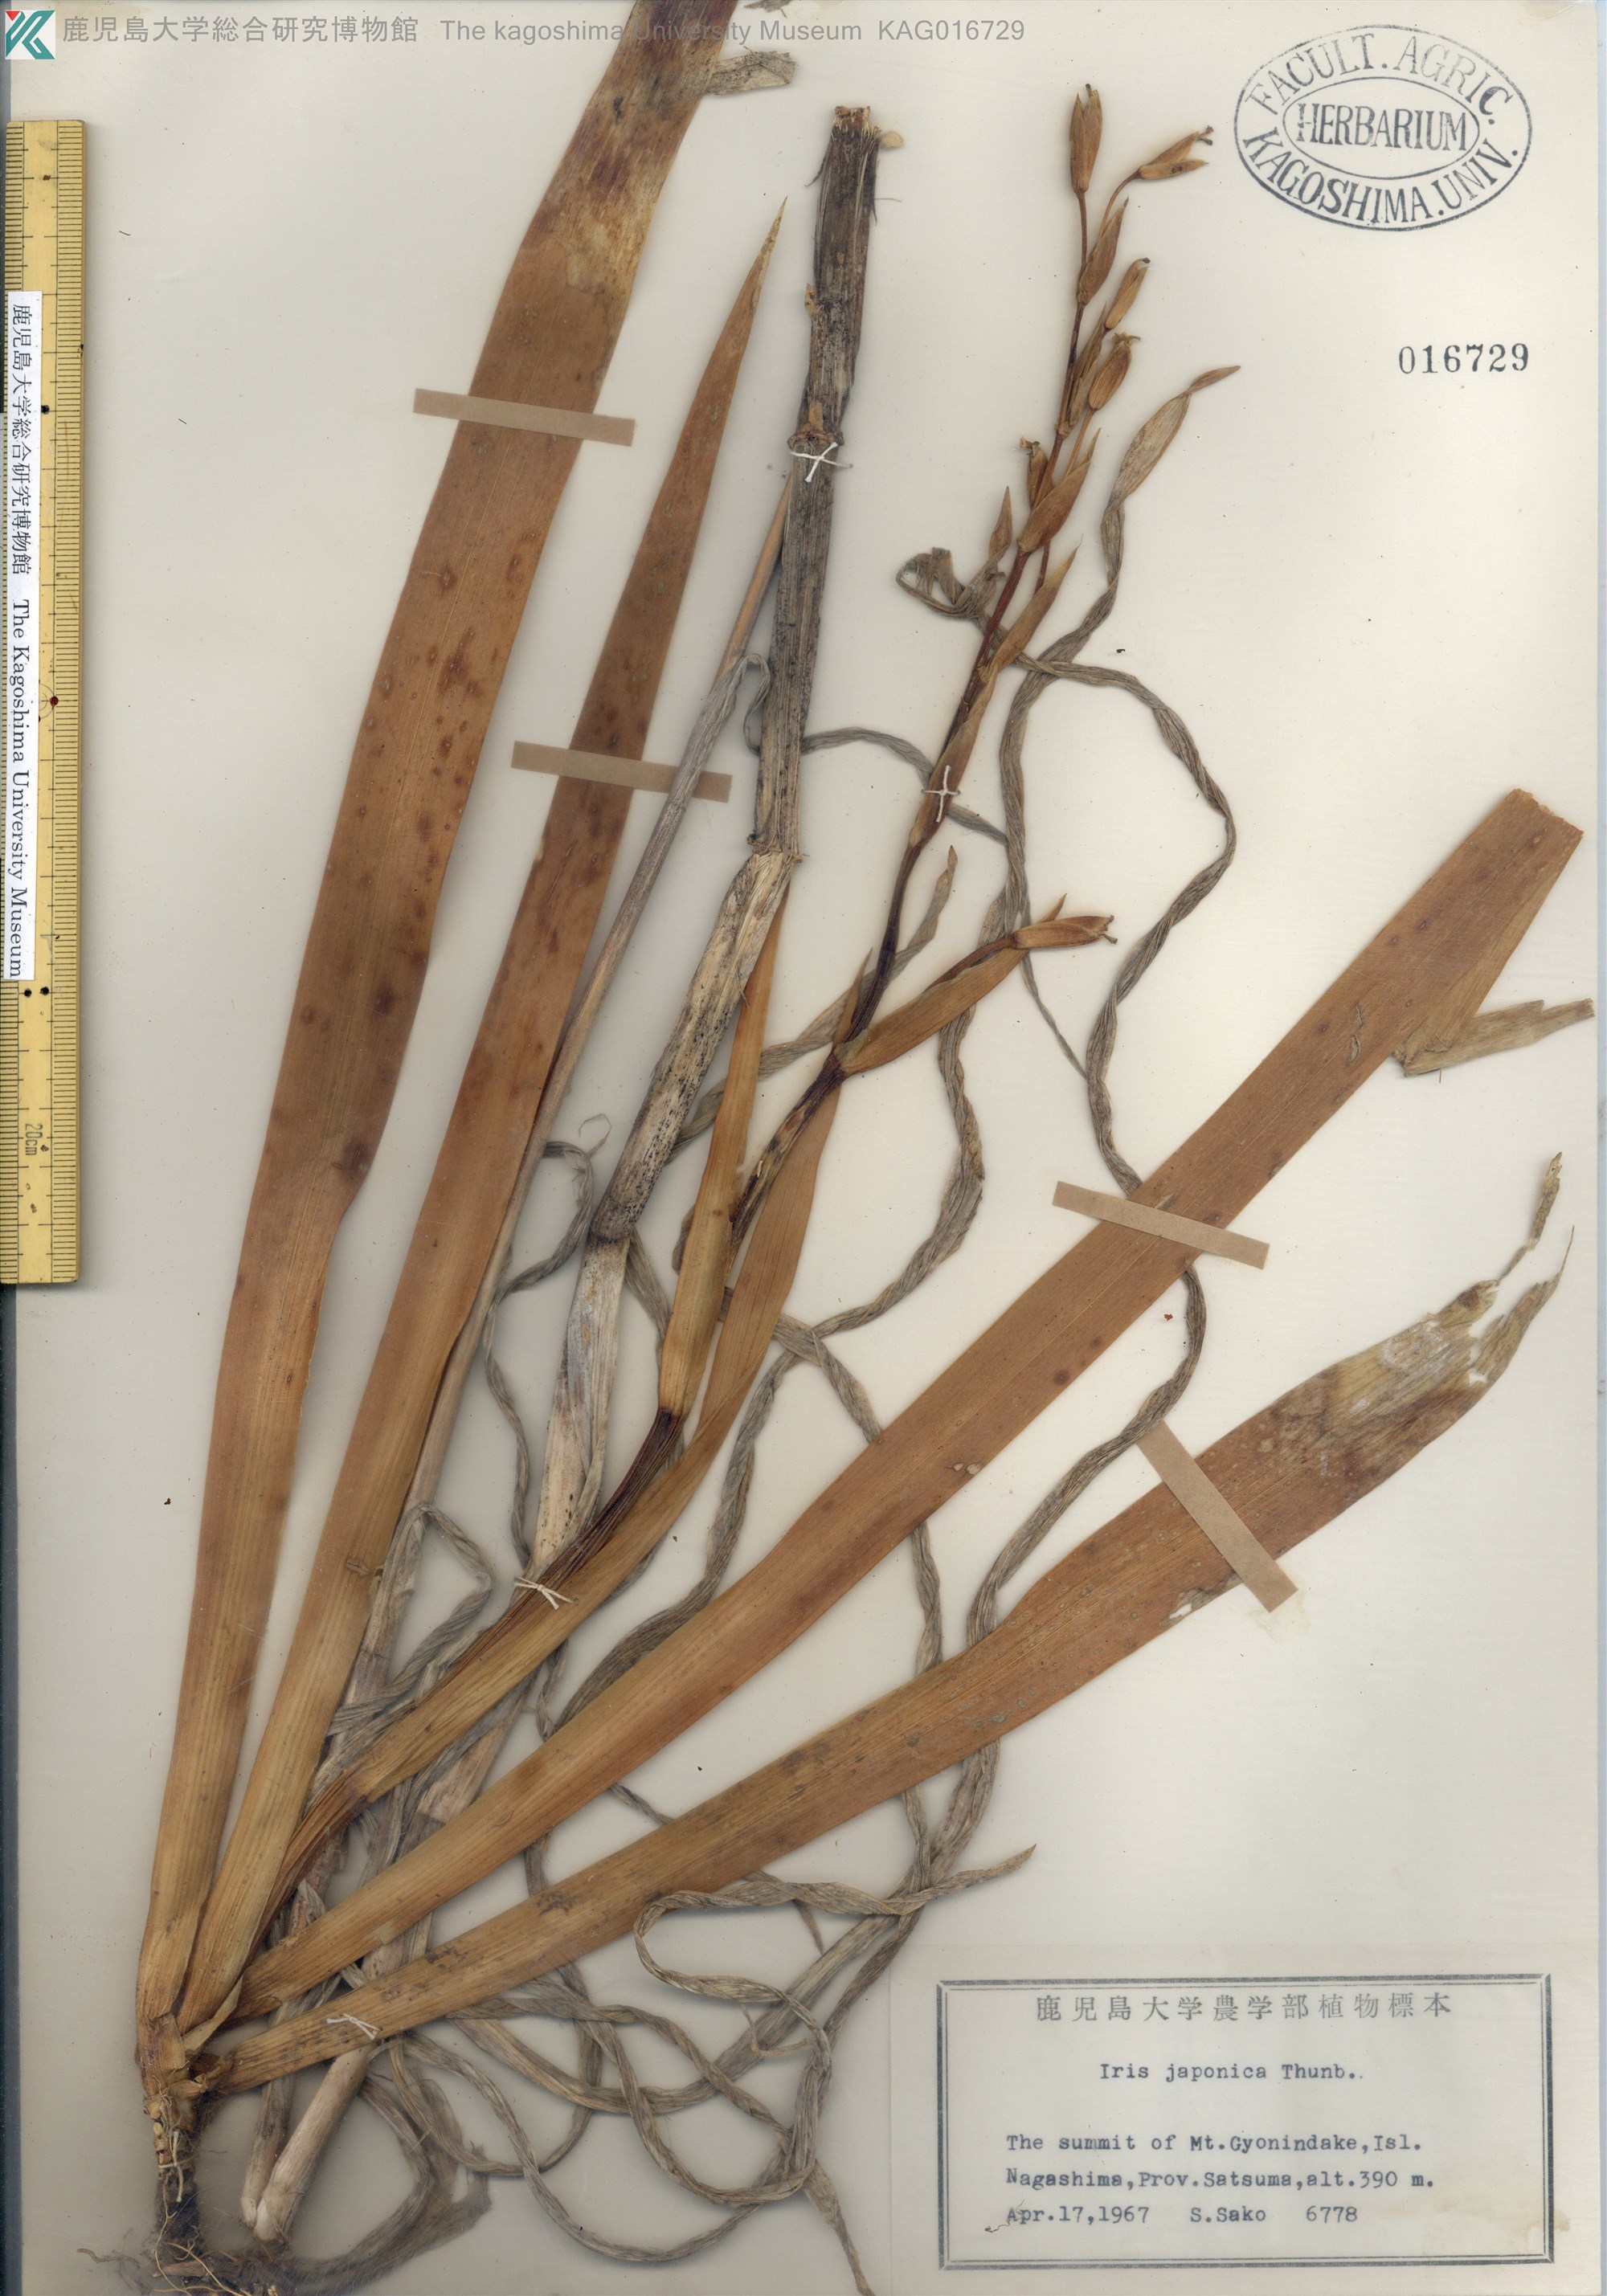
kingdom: Plantae
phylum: Tracheophyta
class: Liliopsida
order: Asparagales
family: Iridaceae
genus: Iris
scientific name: Iris japonica
